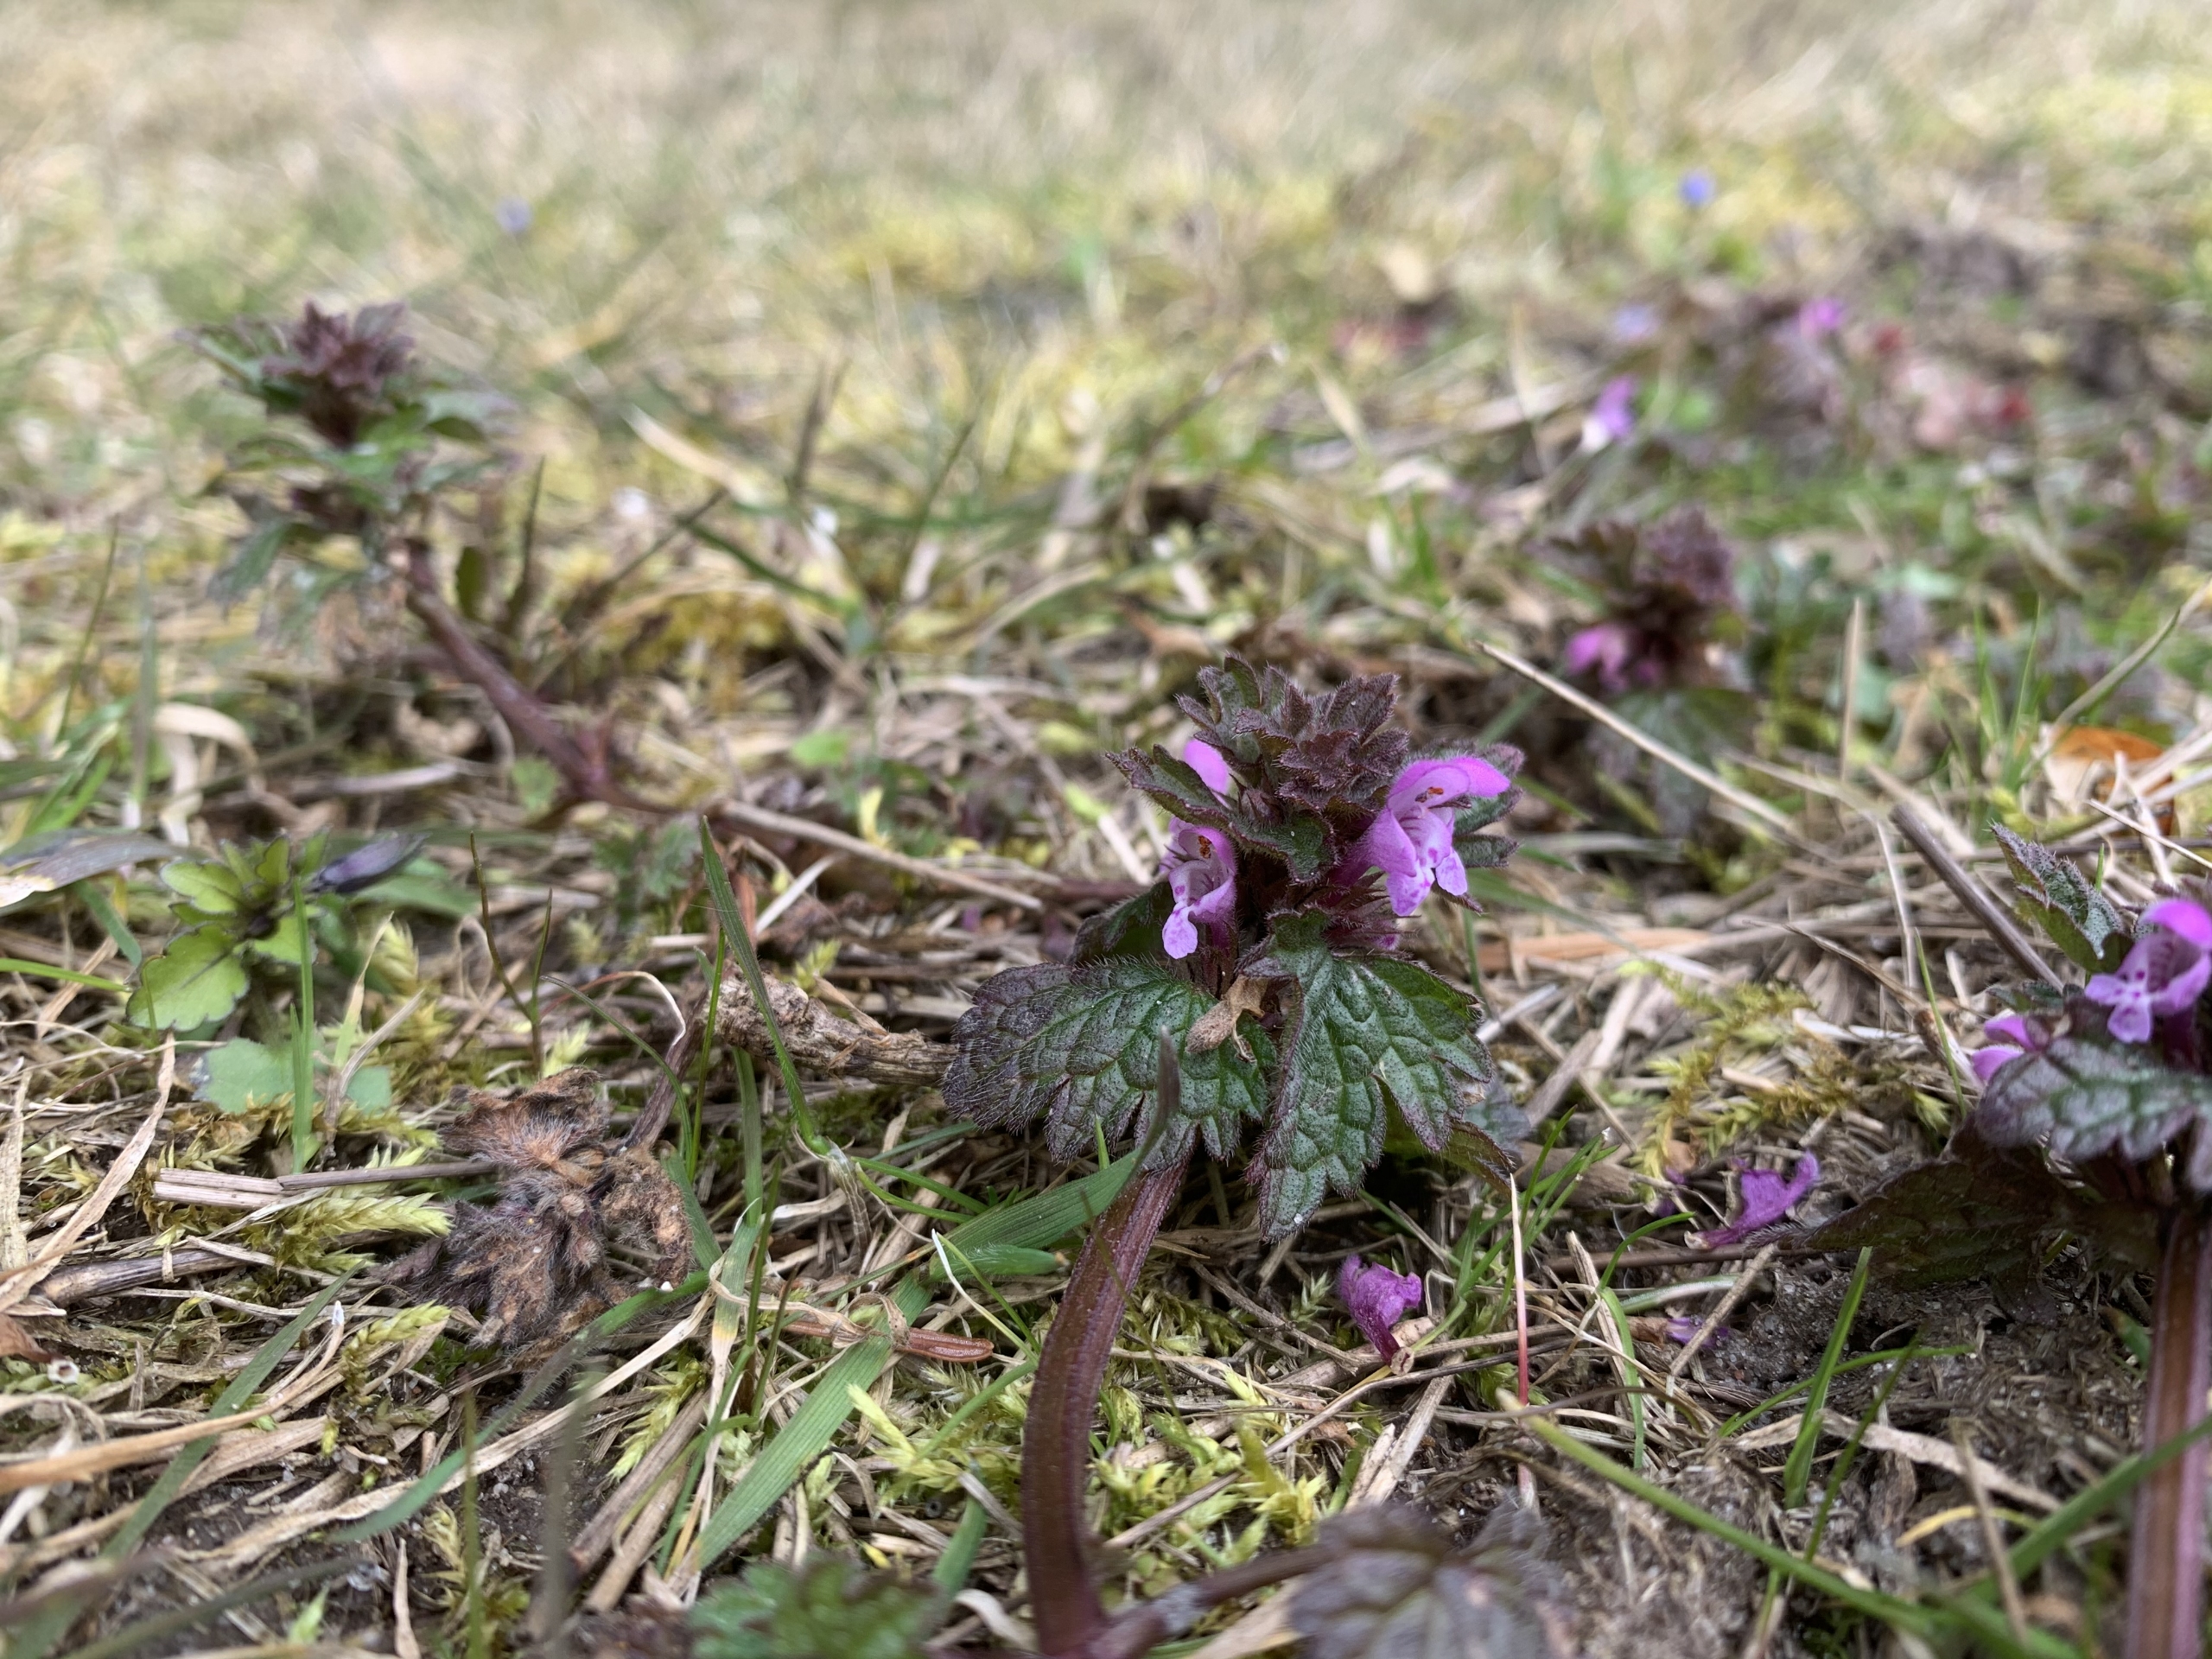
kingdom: Plantae
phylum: Tracheophyta
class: Magnoliopsida
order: Lamiales
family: Lamiaceae
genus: Lamium
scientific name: Lamium hybridum
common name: Fliget tvetand
